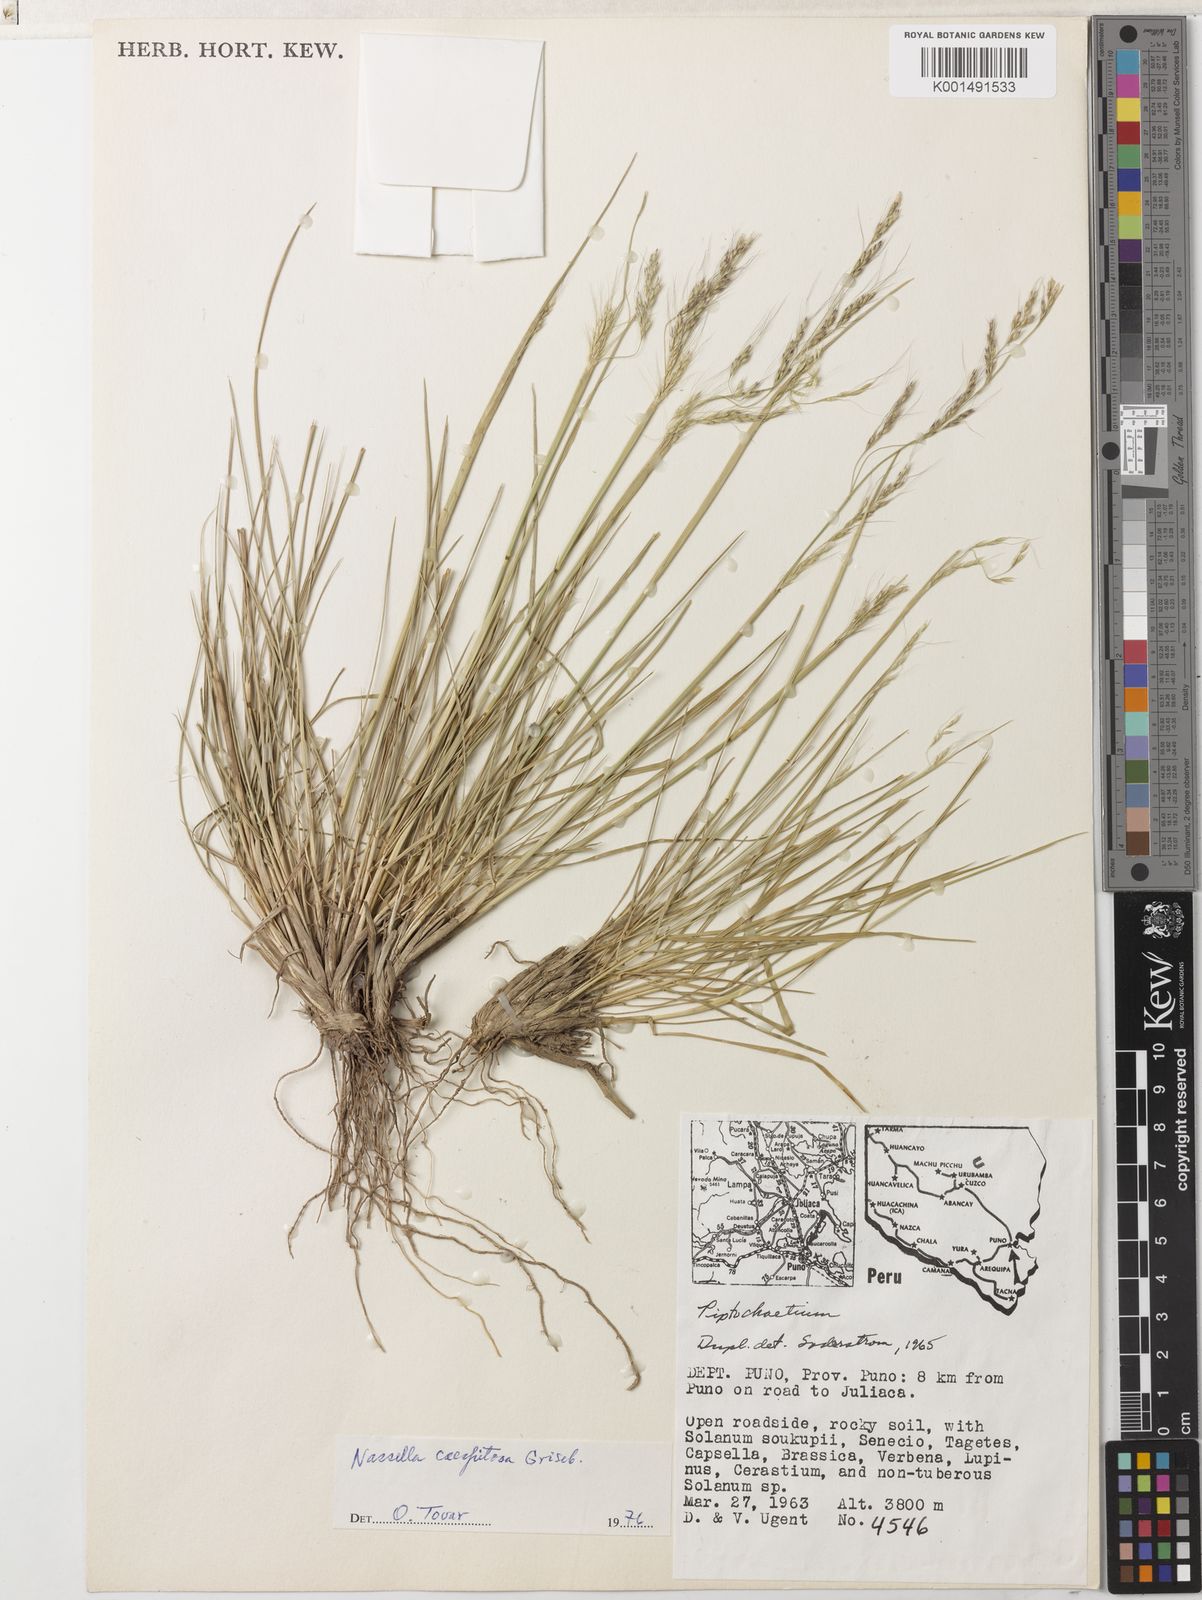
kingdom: Plantae
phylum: Tracheophyta
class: Liliopsida
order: Poales
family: Poaceae
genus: Nassella
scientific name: Nassella caespitosa
